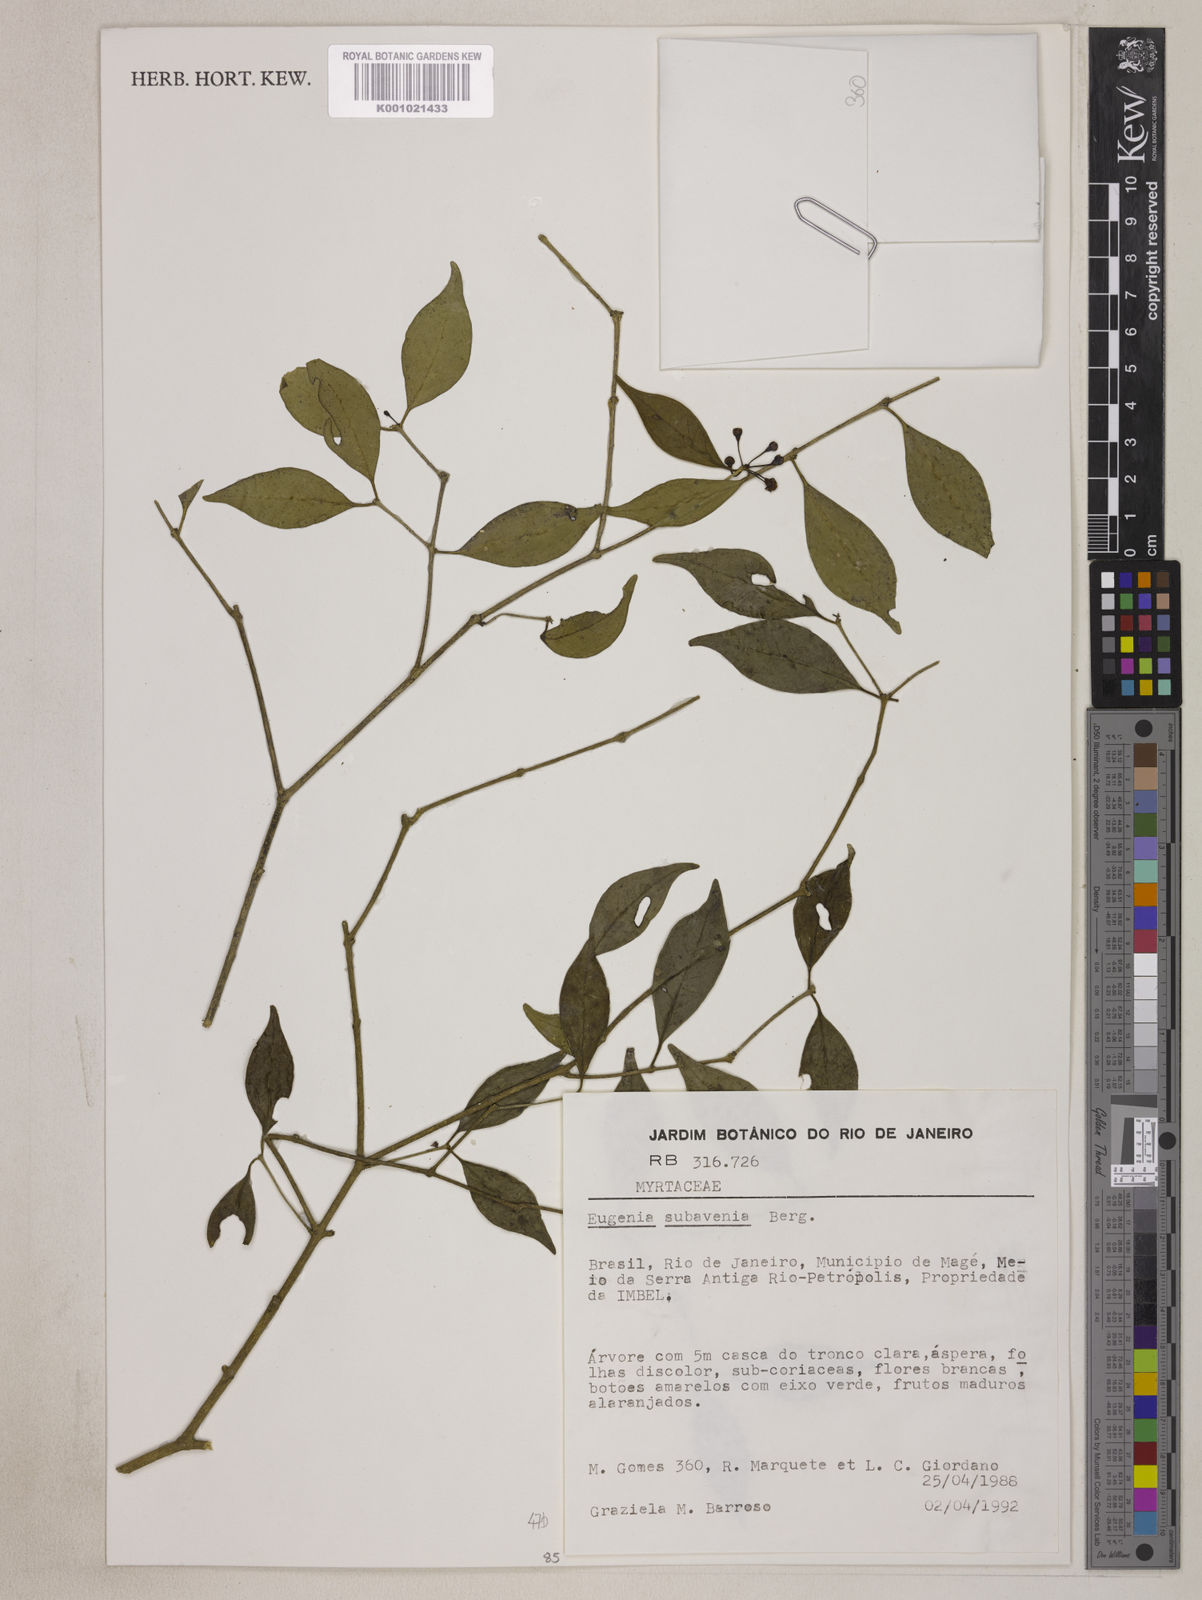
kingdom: Plantae
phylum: Tracheophyta
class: Magnoliopsida
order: Myrtales
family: Myrtaceae
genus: Eugenia
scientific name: Eugenia subavenia
